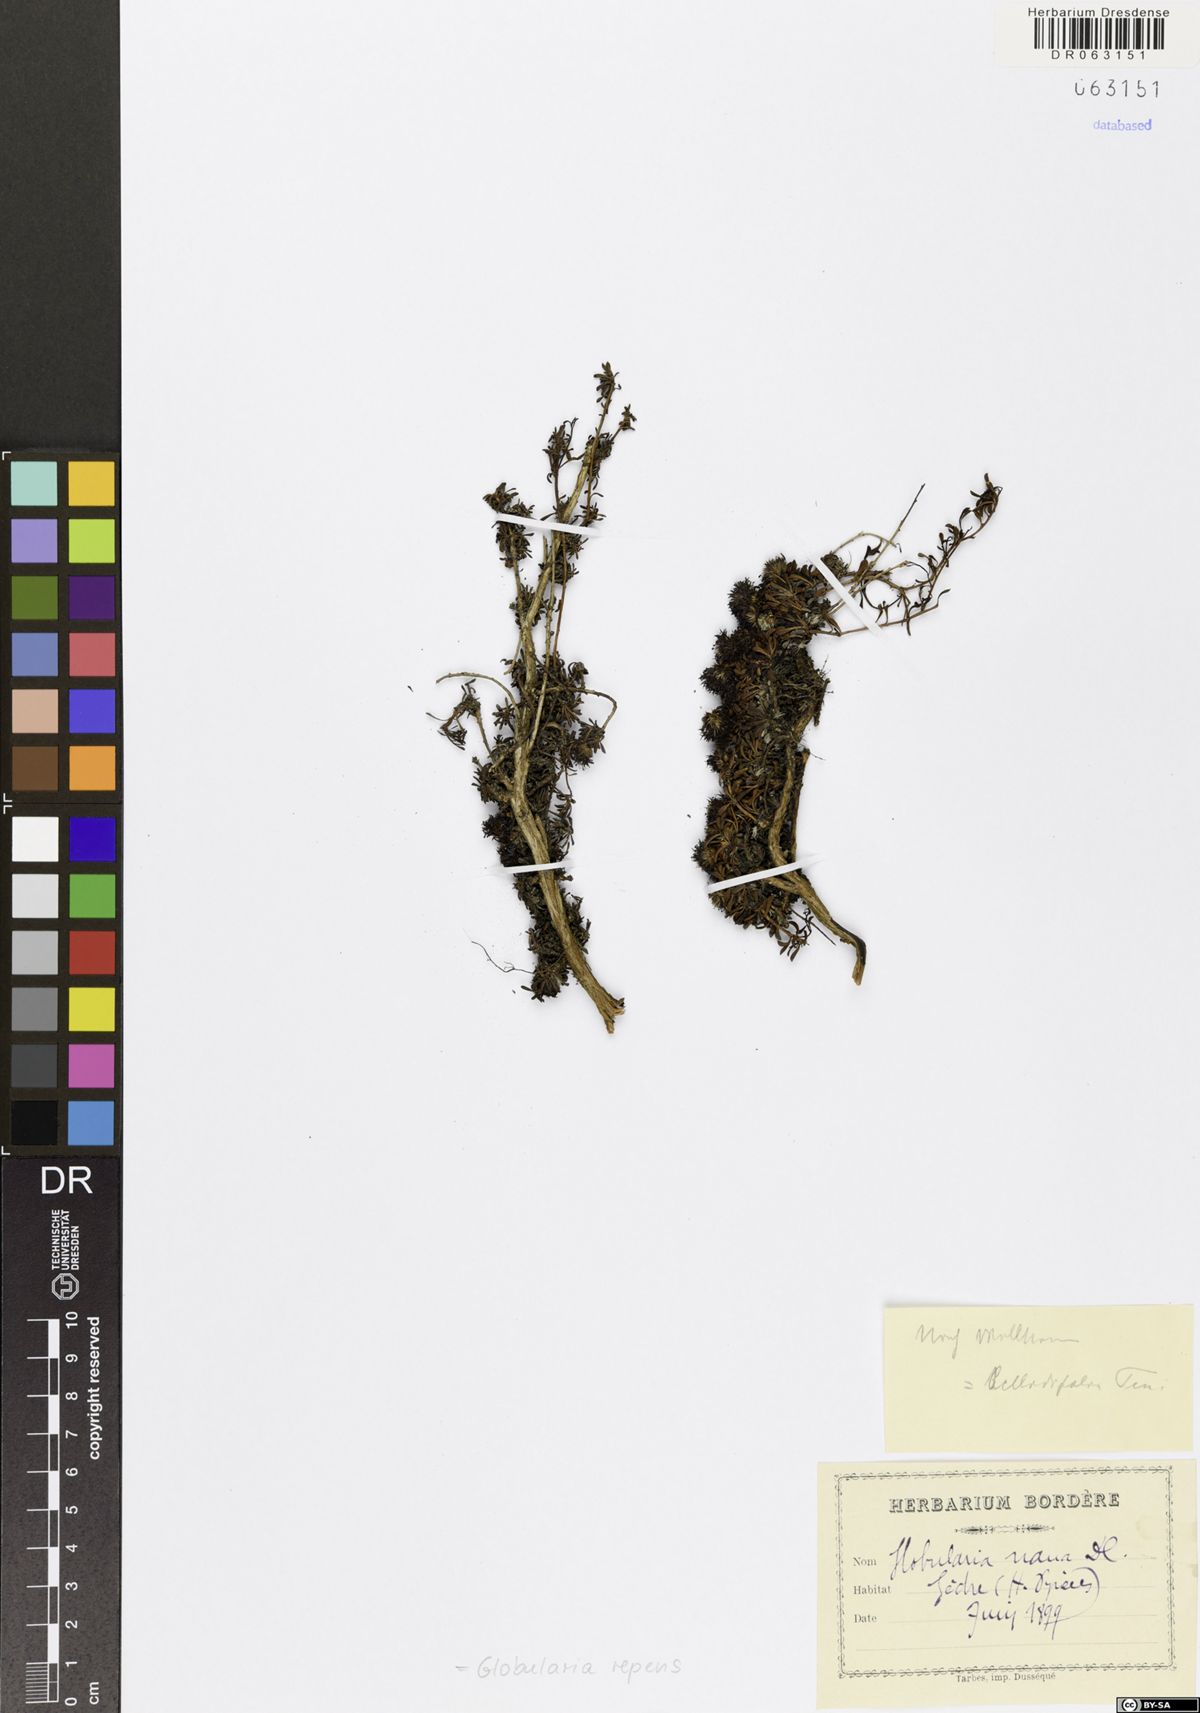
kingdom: Plantae
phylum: Tracheophyta
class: Magnoliopsida
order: Lamiales
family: Plantaginaceae
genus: Globularia
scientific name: Globularia repens
